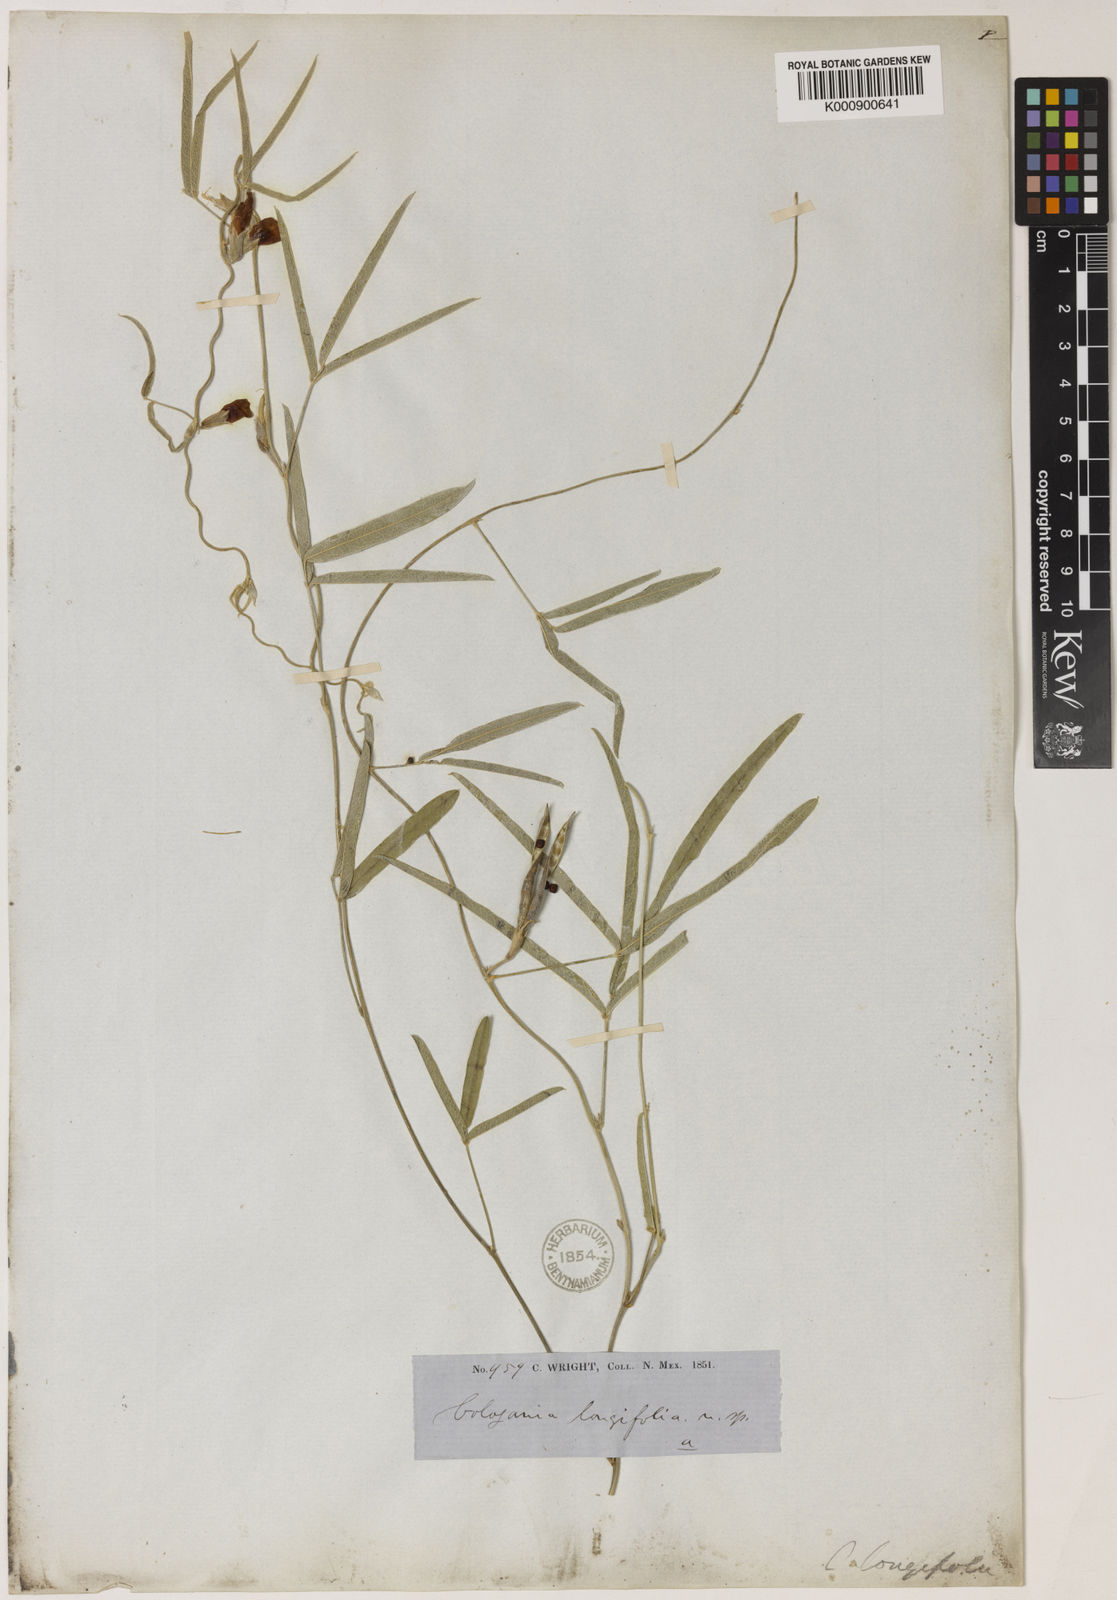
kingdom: Plantae
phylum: Tracheophyta
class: Magnoliopsida
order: Fabales
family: Fabaceae
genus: Cologania
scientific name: Cologania angustifolia
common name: Longleaf cologania
